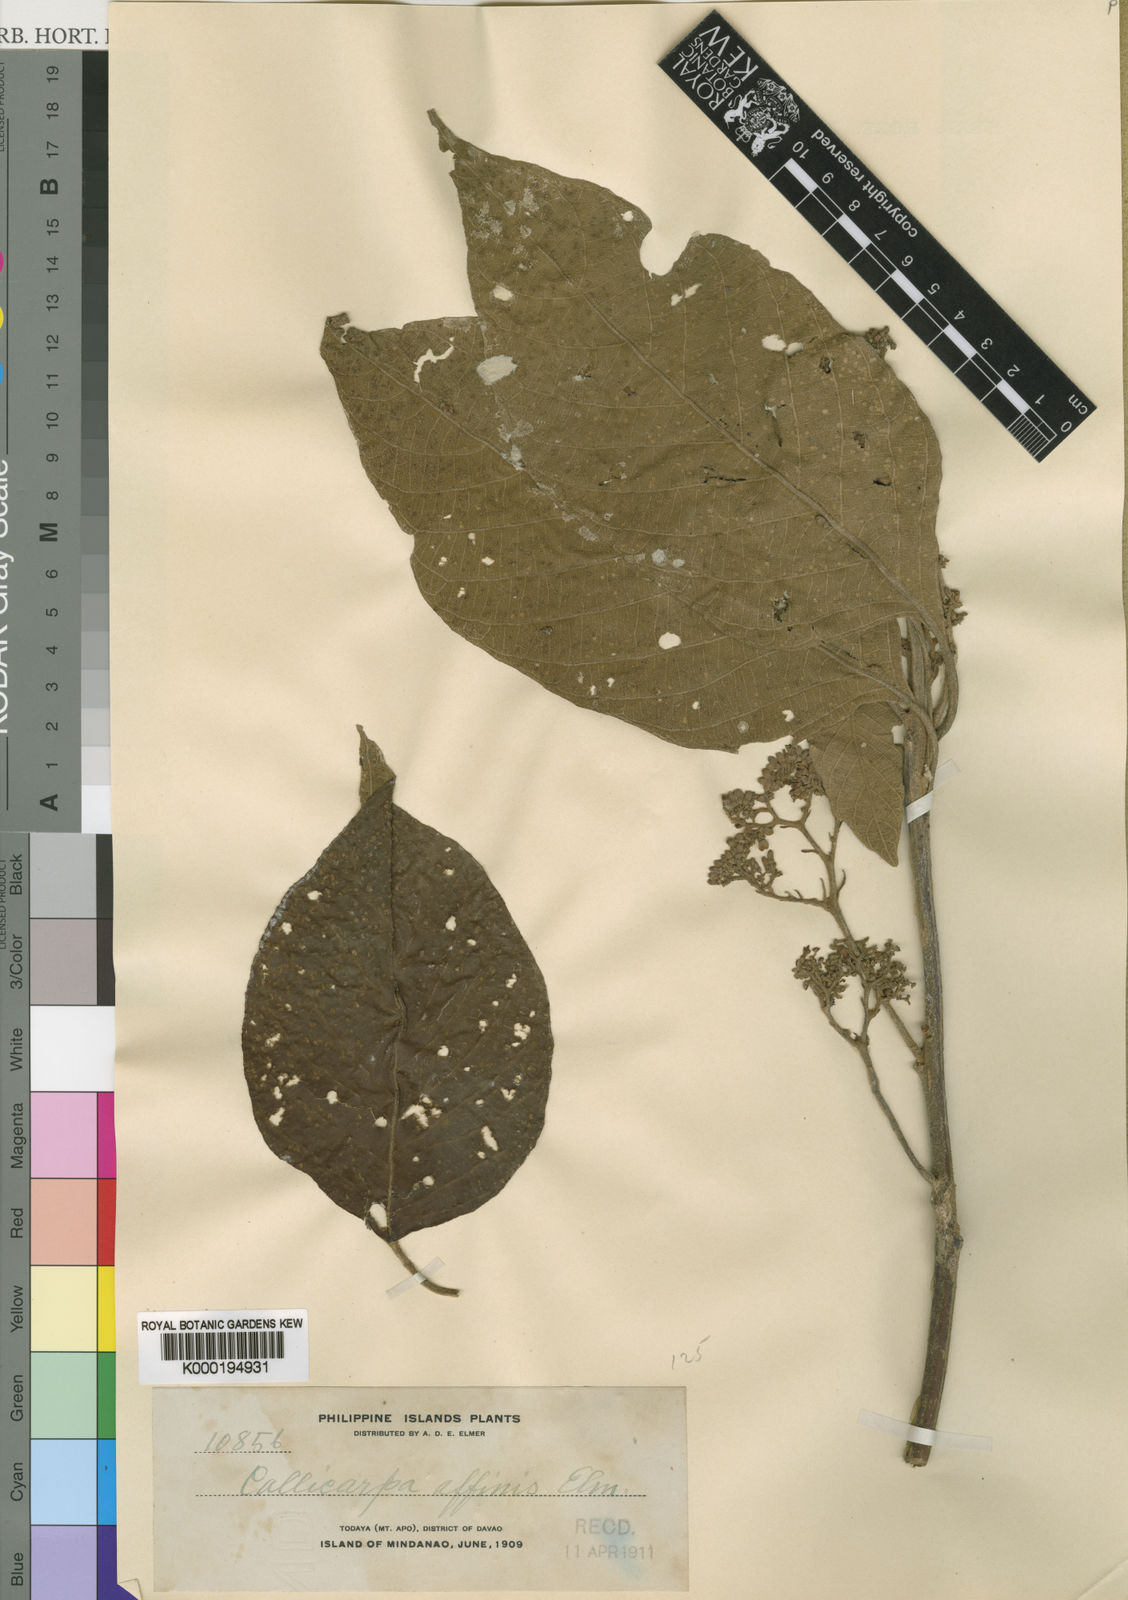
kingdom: Plantae
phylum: Tracheophyta
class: Magnoliopsida
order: Lamiales
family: Lamiaceae
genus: Callicarpa
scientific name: Callicarpa pentandra
